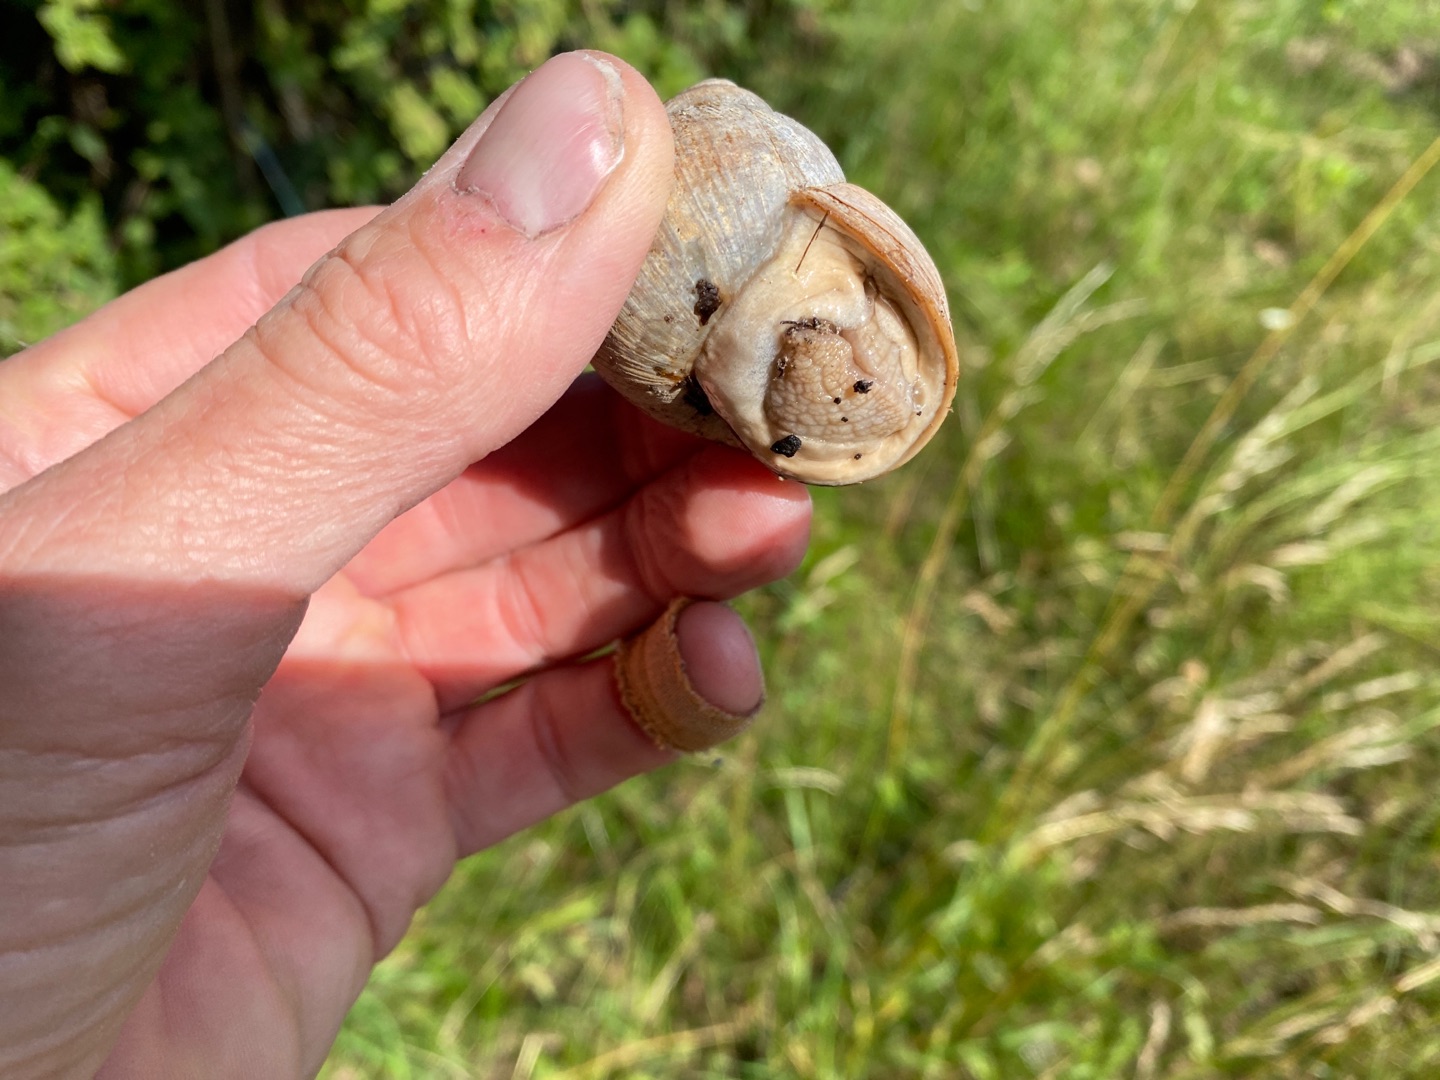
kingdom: Animalia
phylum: Mollusca
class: Gastropoda
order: Stylommatophora
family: Helicidae
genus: Helix
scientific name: Helix pomatia
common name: Vinbjergsnegl
